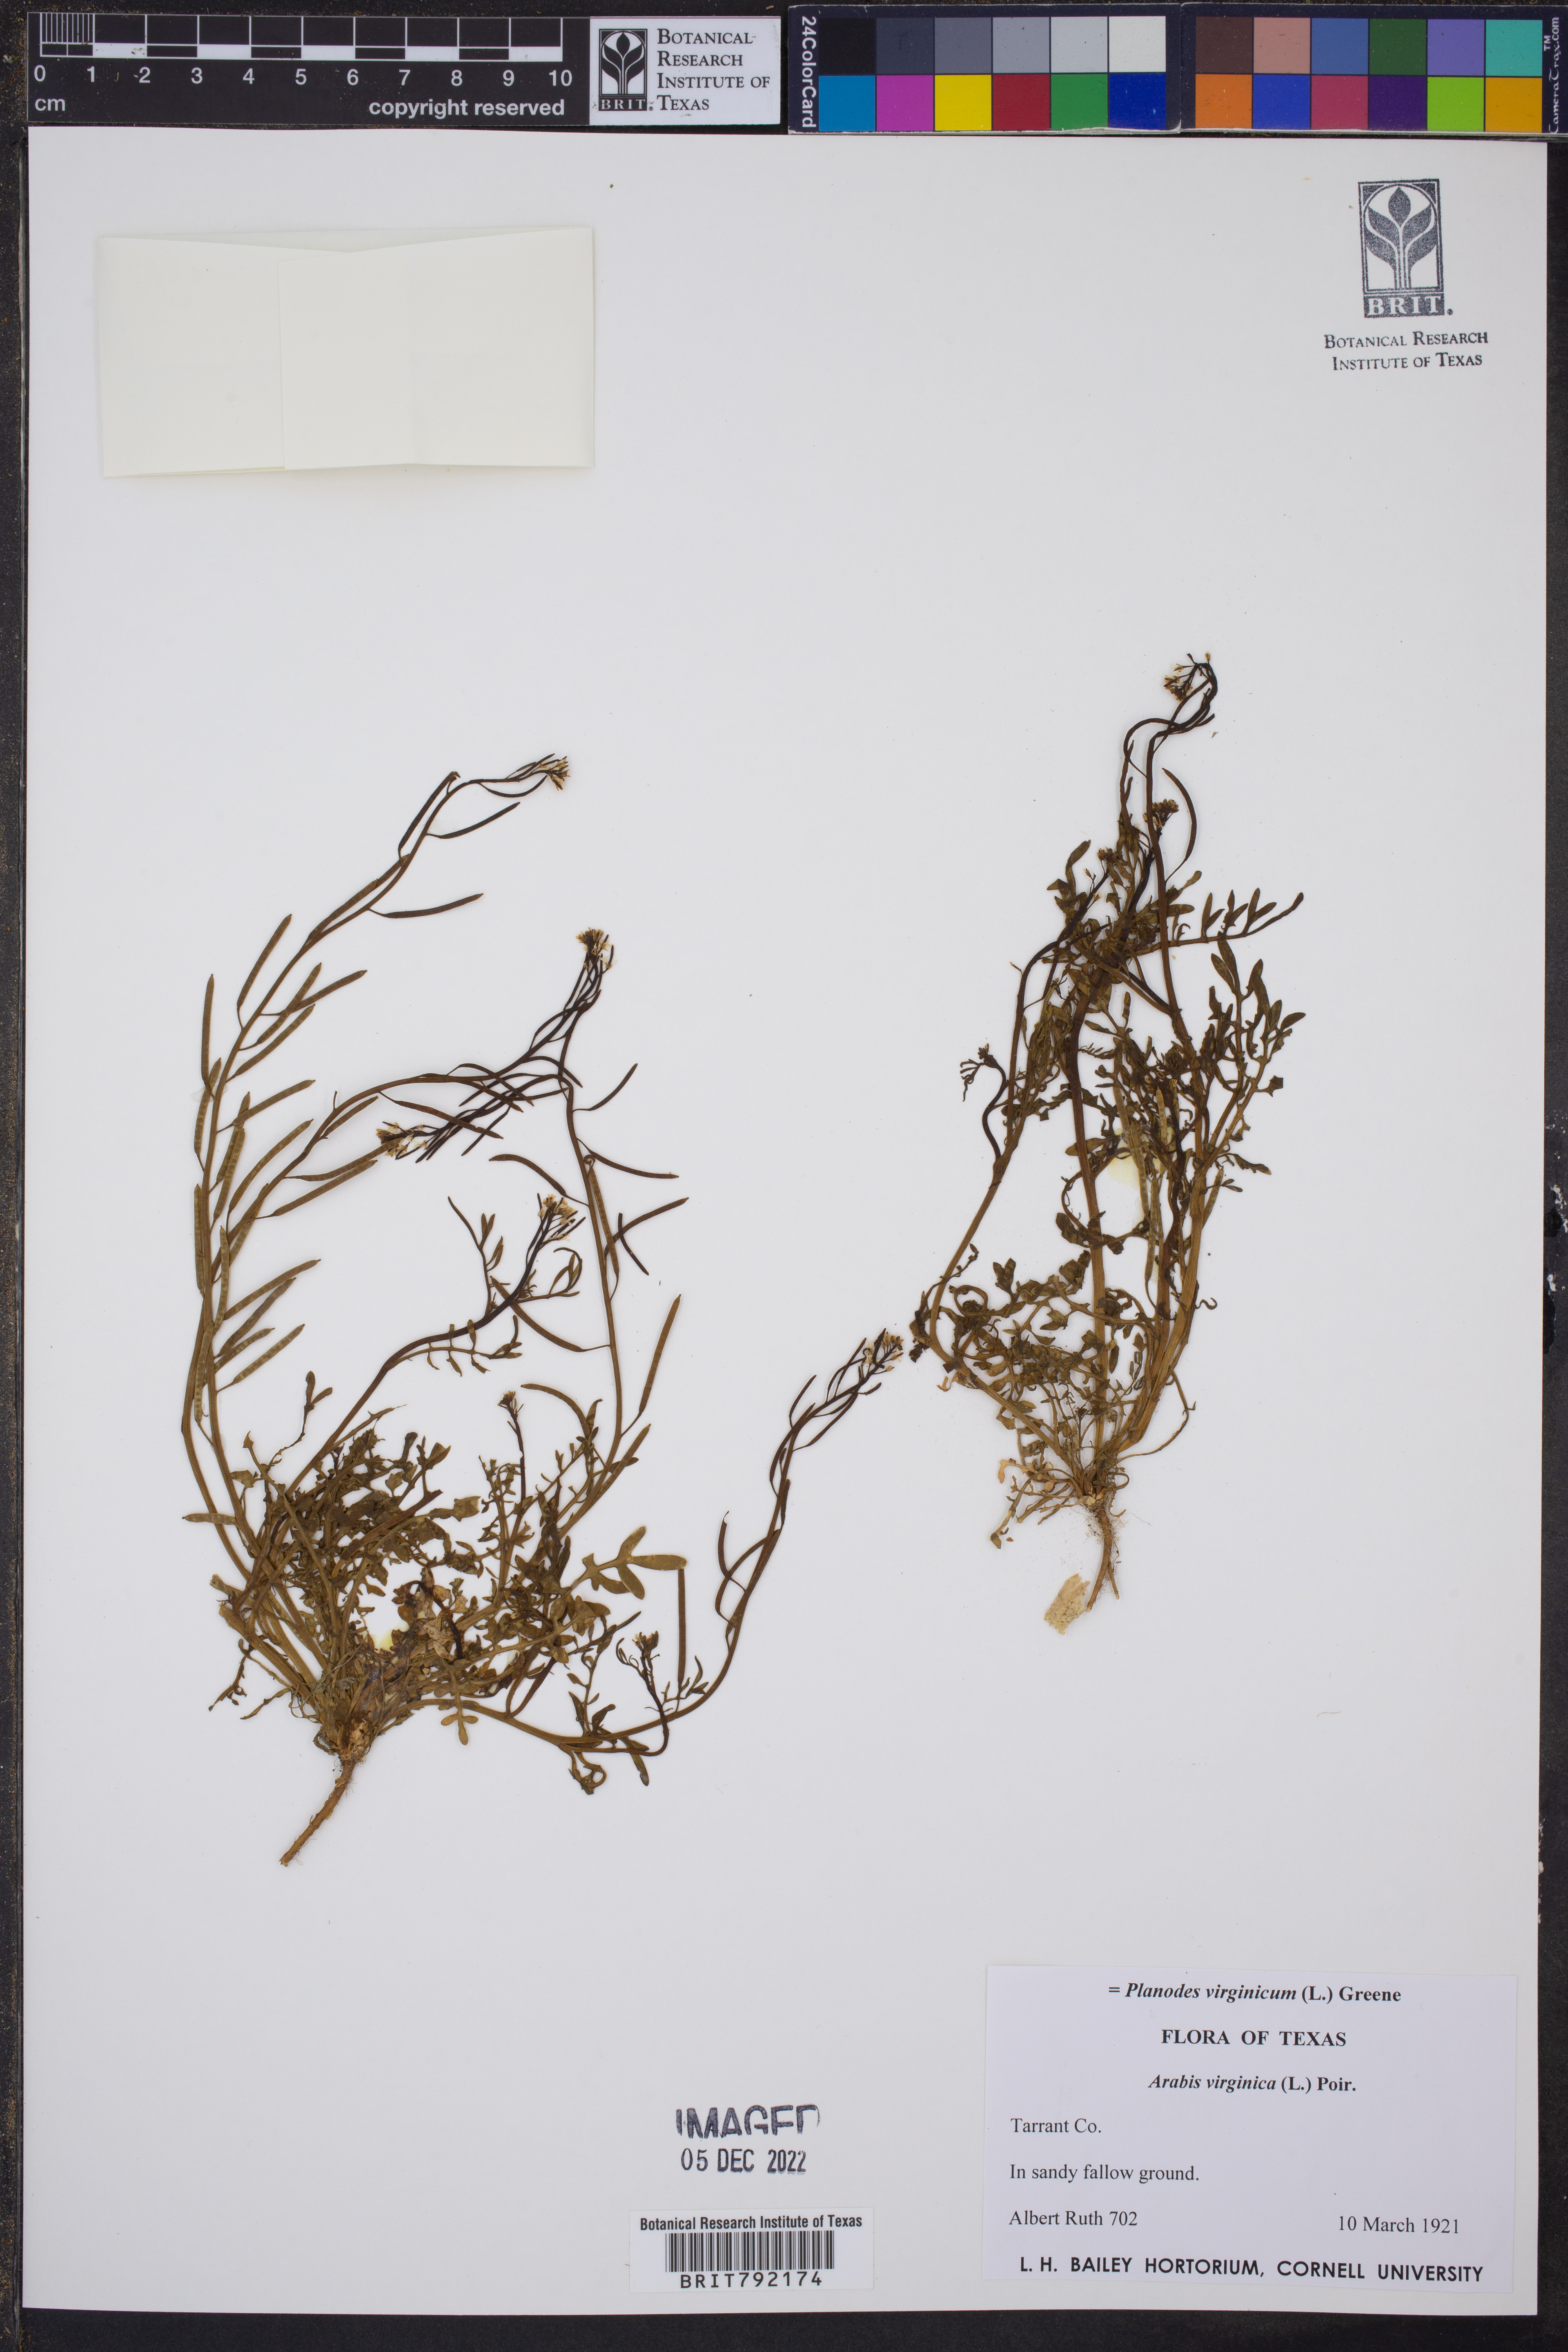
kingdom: Plantae
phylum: Tracheophyta
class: Magnoliopsida
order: Brassicales
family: Brassicaceae
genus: Planodes
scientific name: Planodes virginicum
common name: Virginia cress
